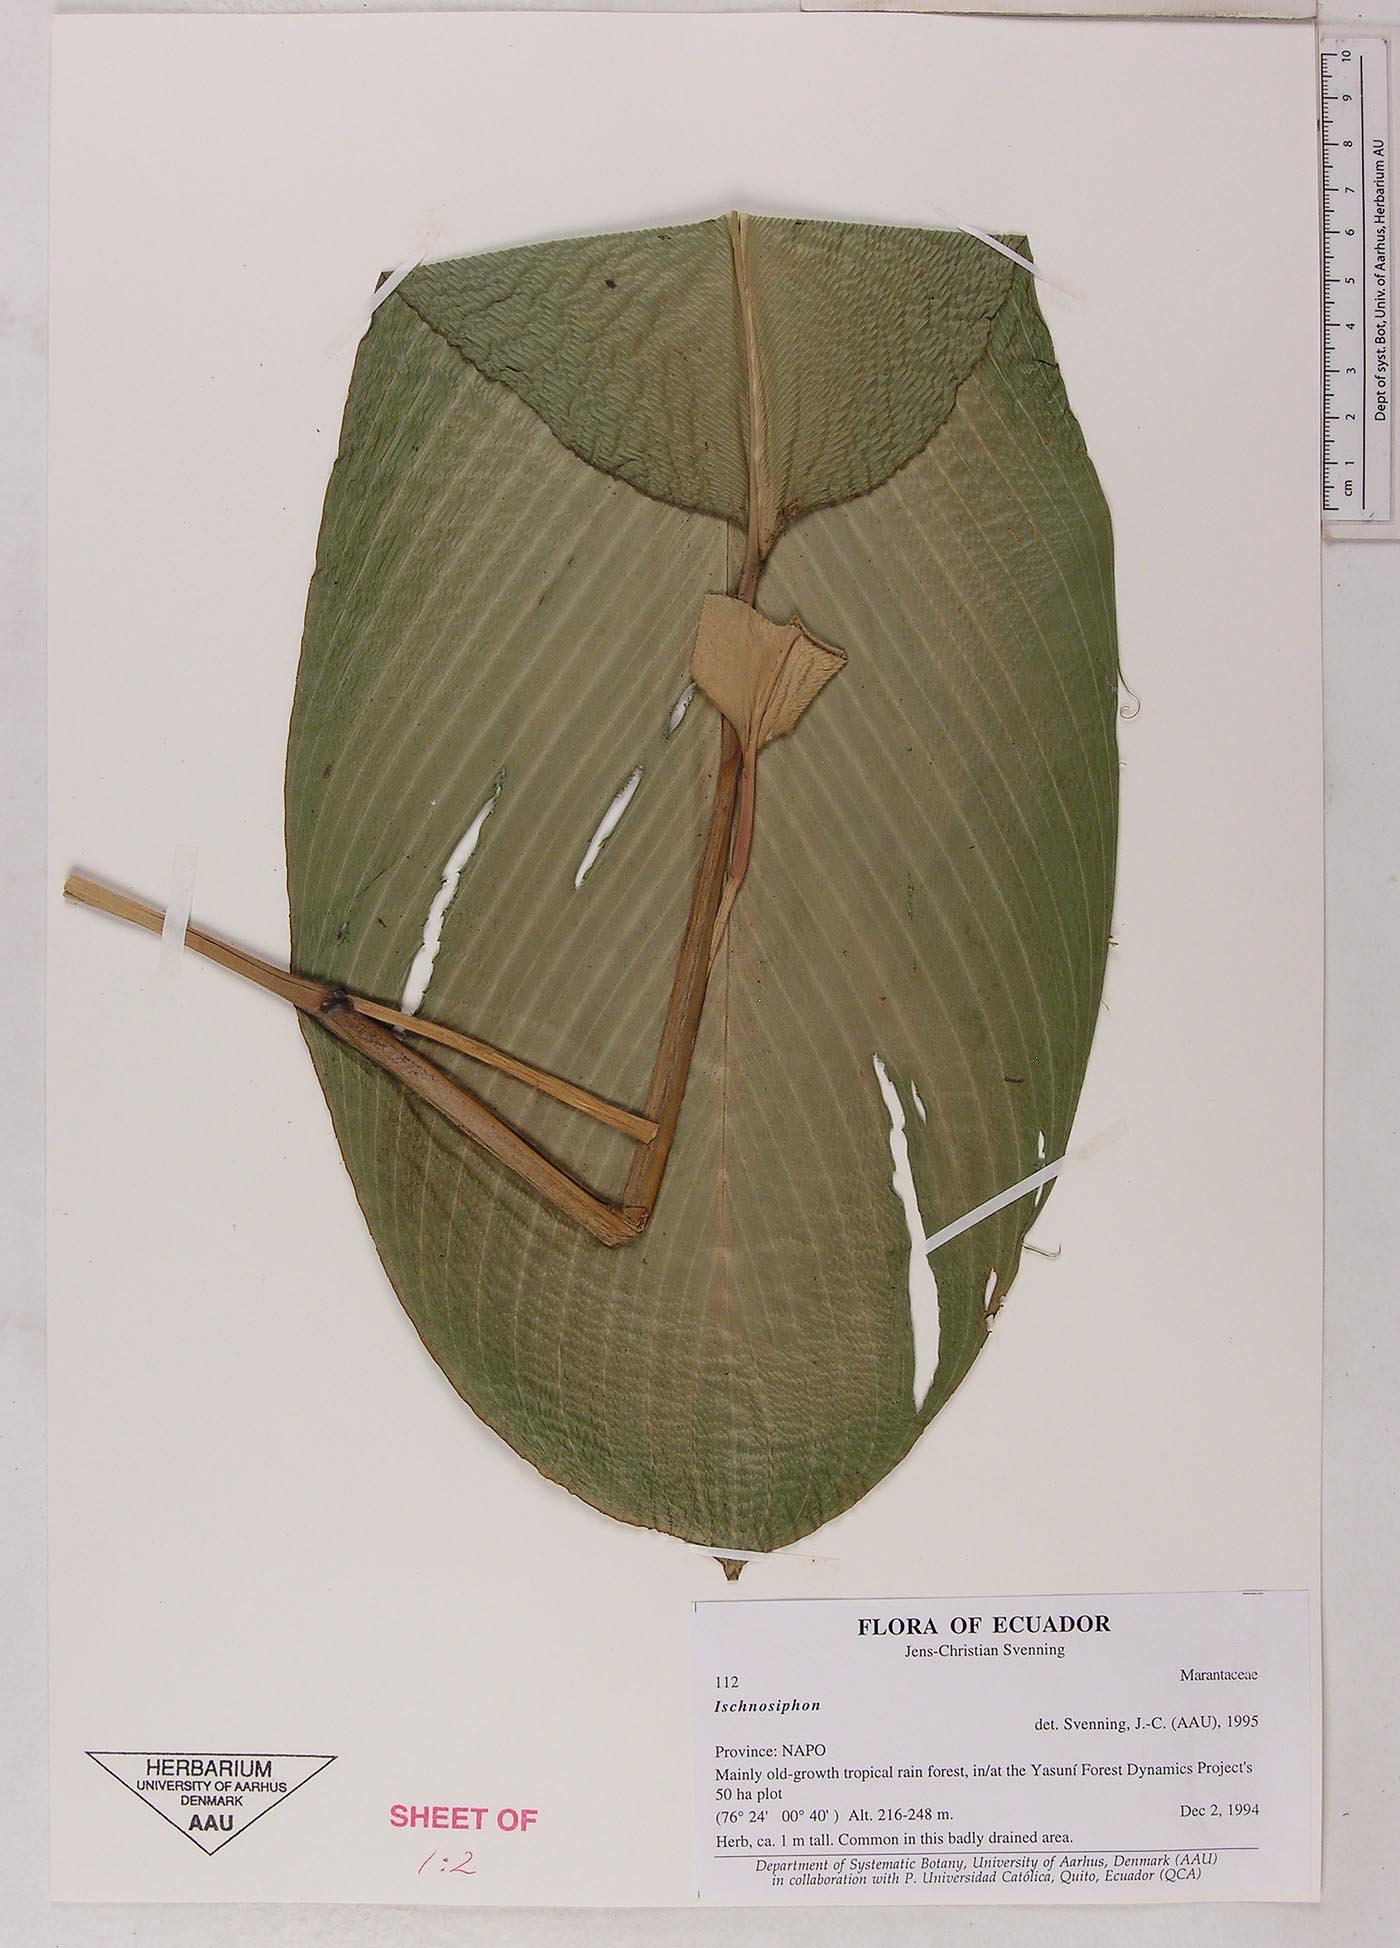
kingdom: Plantae
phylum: Tracheophyta
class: Liliopsida
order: Zingiberales
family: Marantaceae
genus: Ischnosiphon
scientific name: Ischnosiphon
